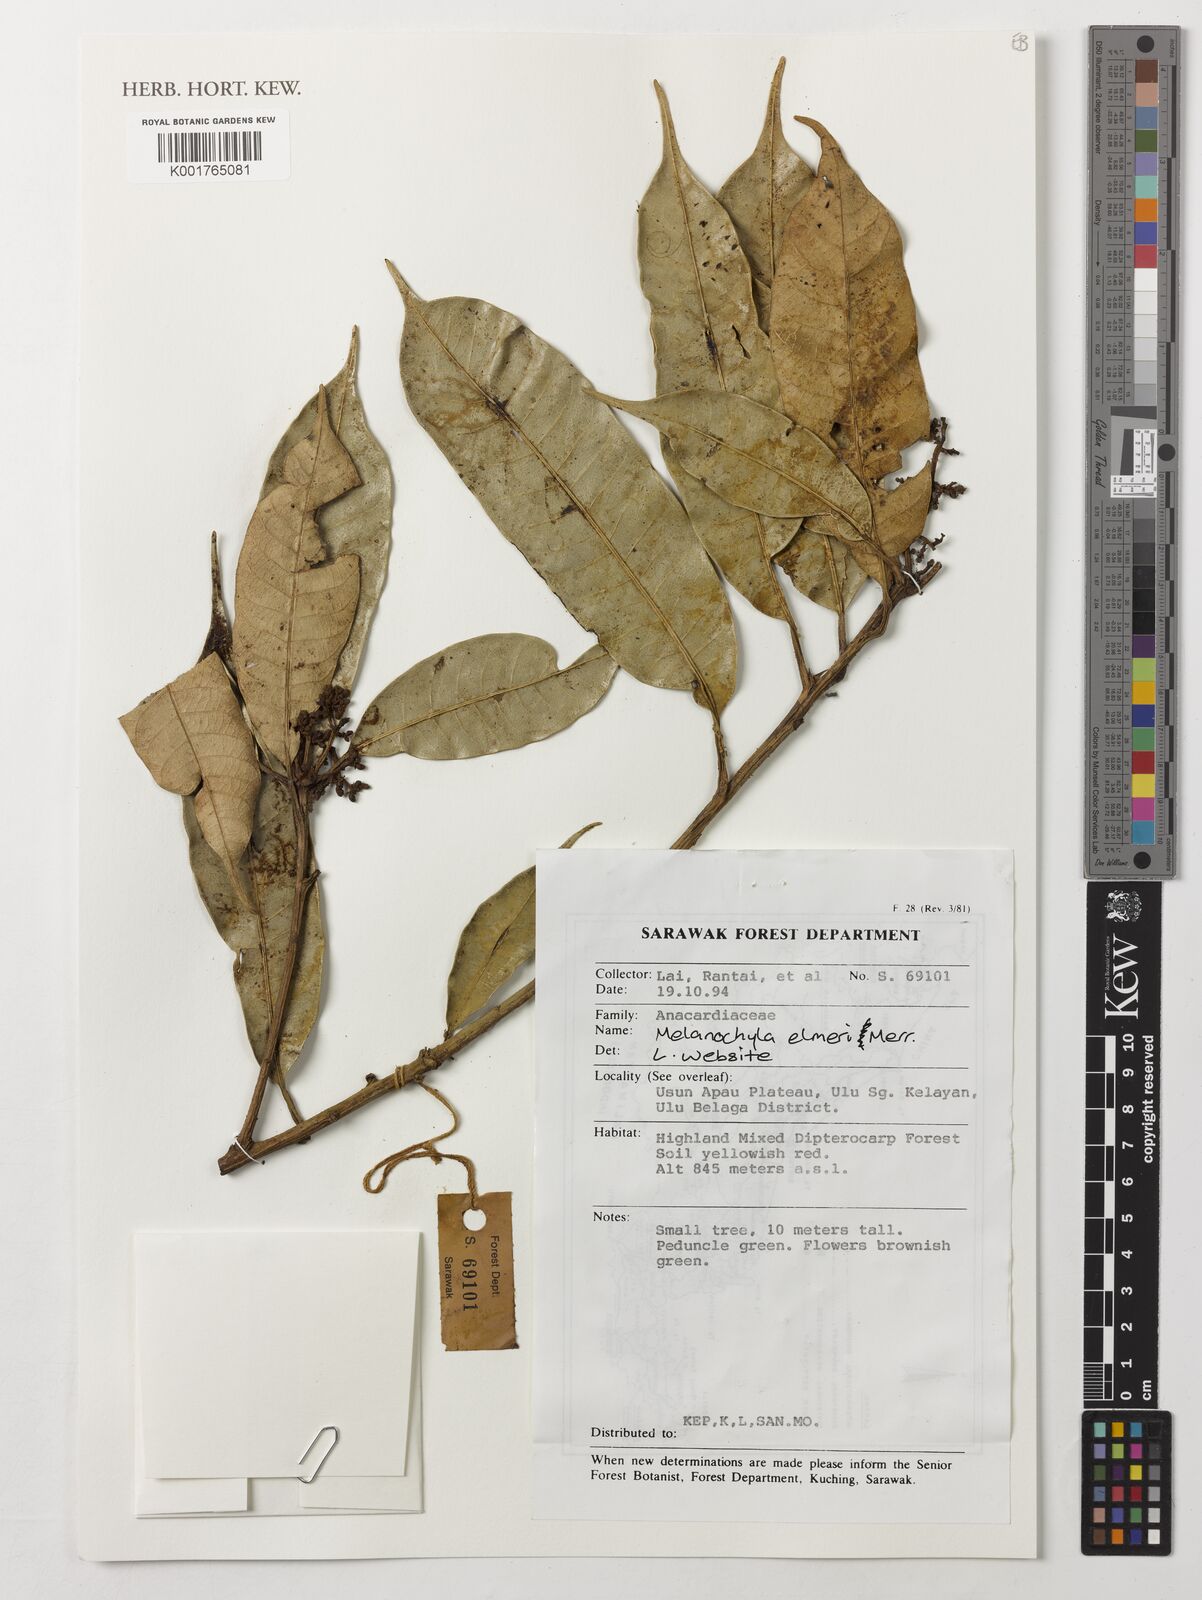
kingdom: Plantae
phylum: Tracheophyta
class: Magnoliopsida
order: Sapindales
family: Anacardiaceae
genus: Melanochyla
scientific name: Melanochyla elmeri
